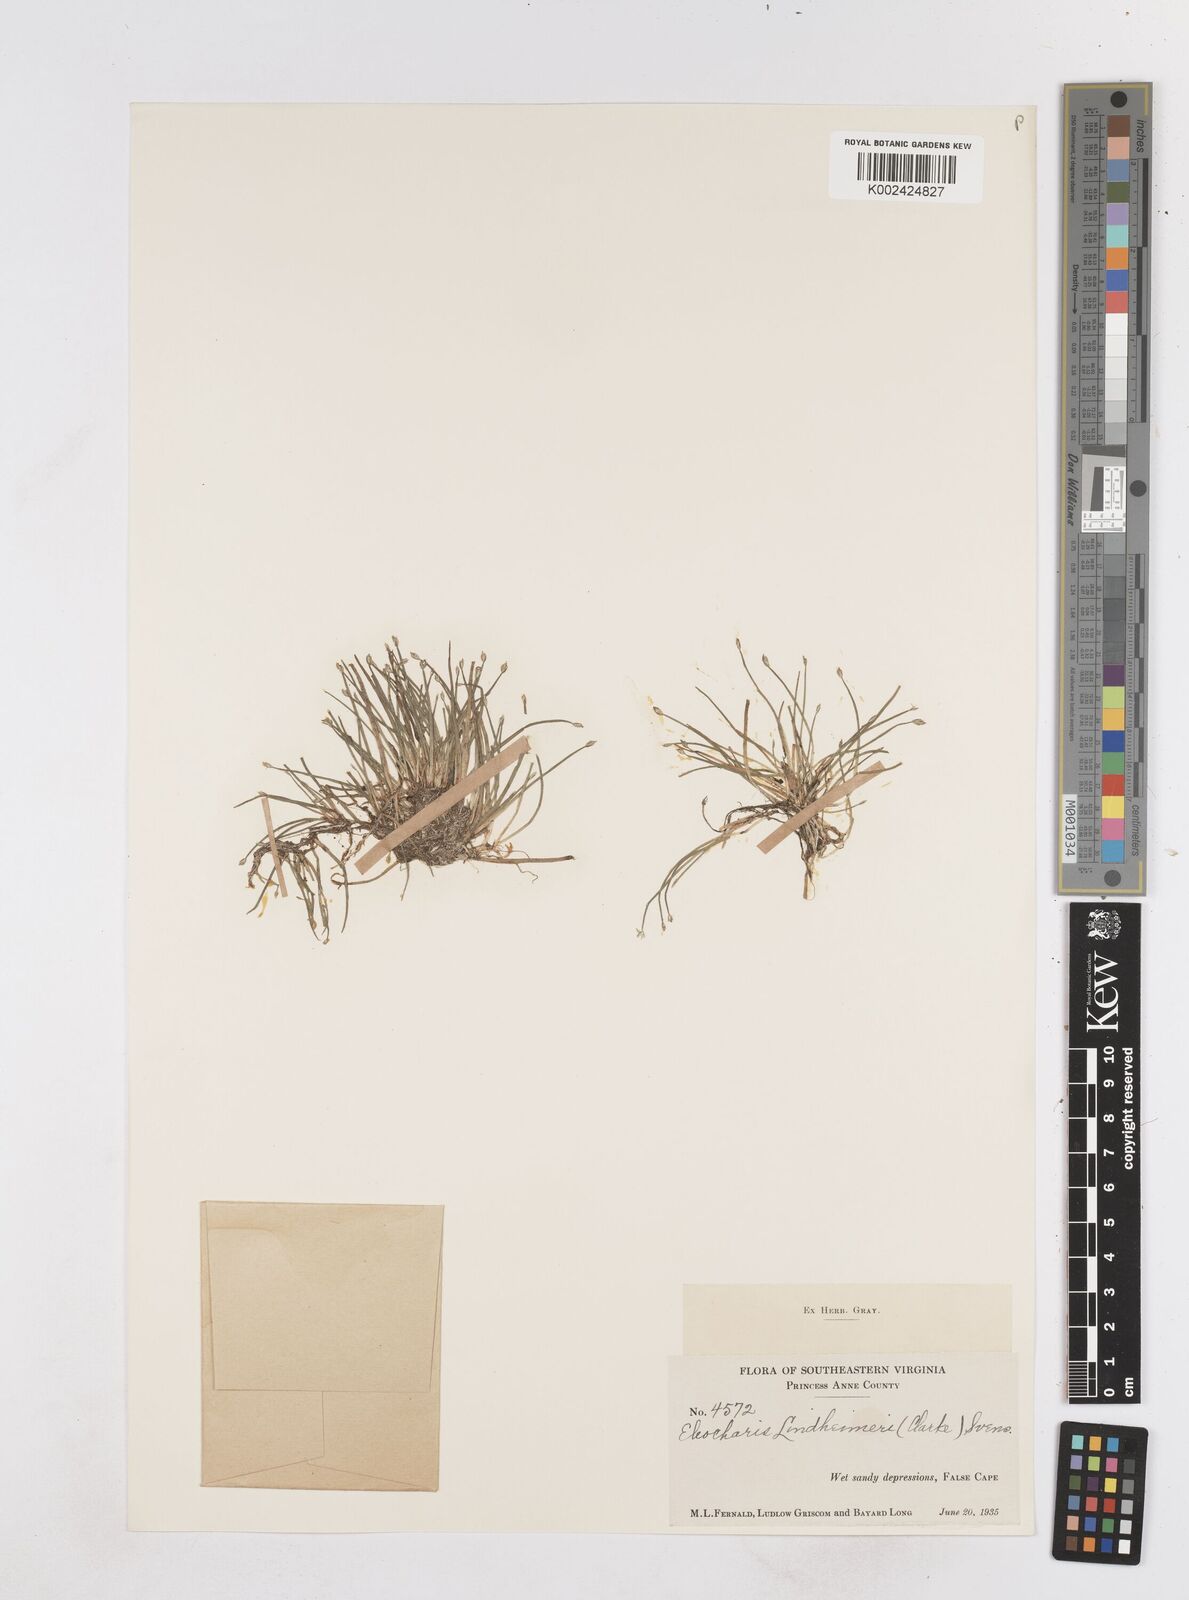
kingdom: Plantae
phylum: Tracheophyta
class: Liliopsida
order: Poales
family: Cyperaceae
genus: Eleocharis
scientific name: Eleocharis acicularis
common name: Needle spike-rush
